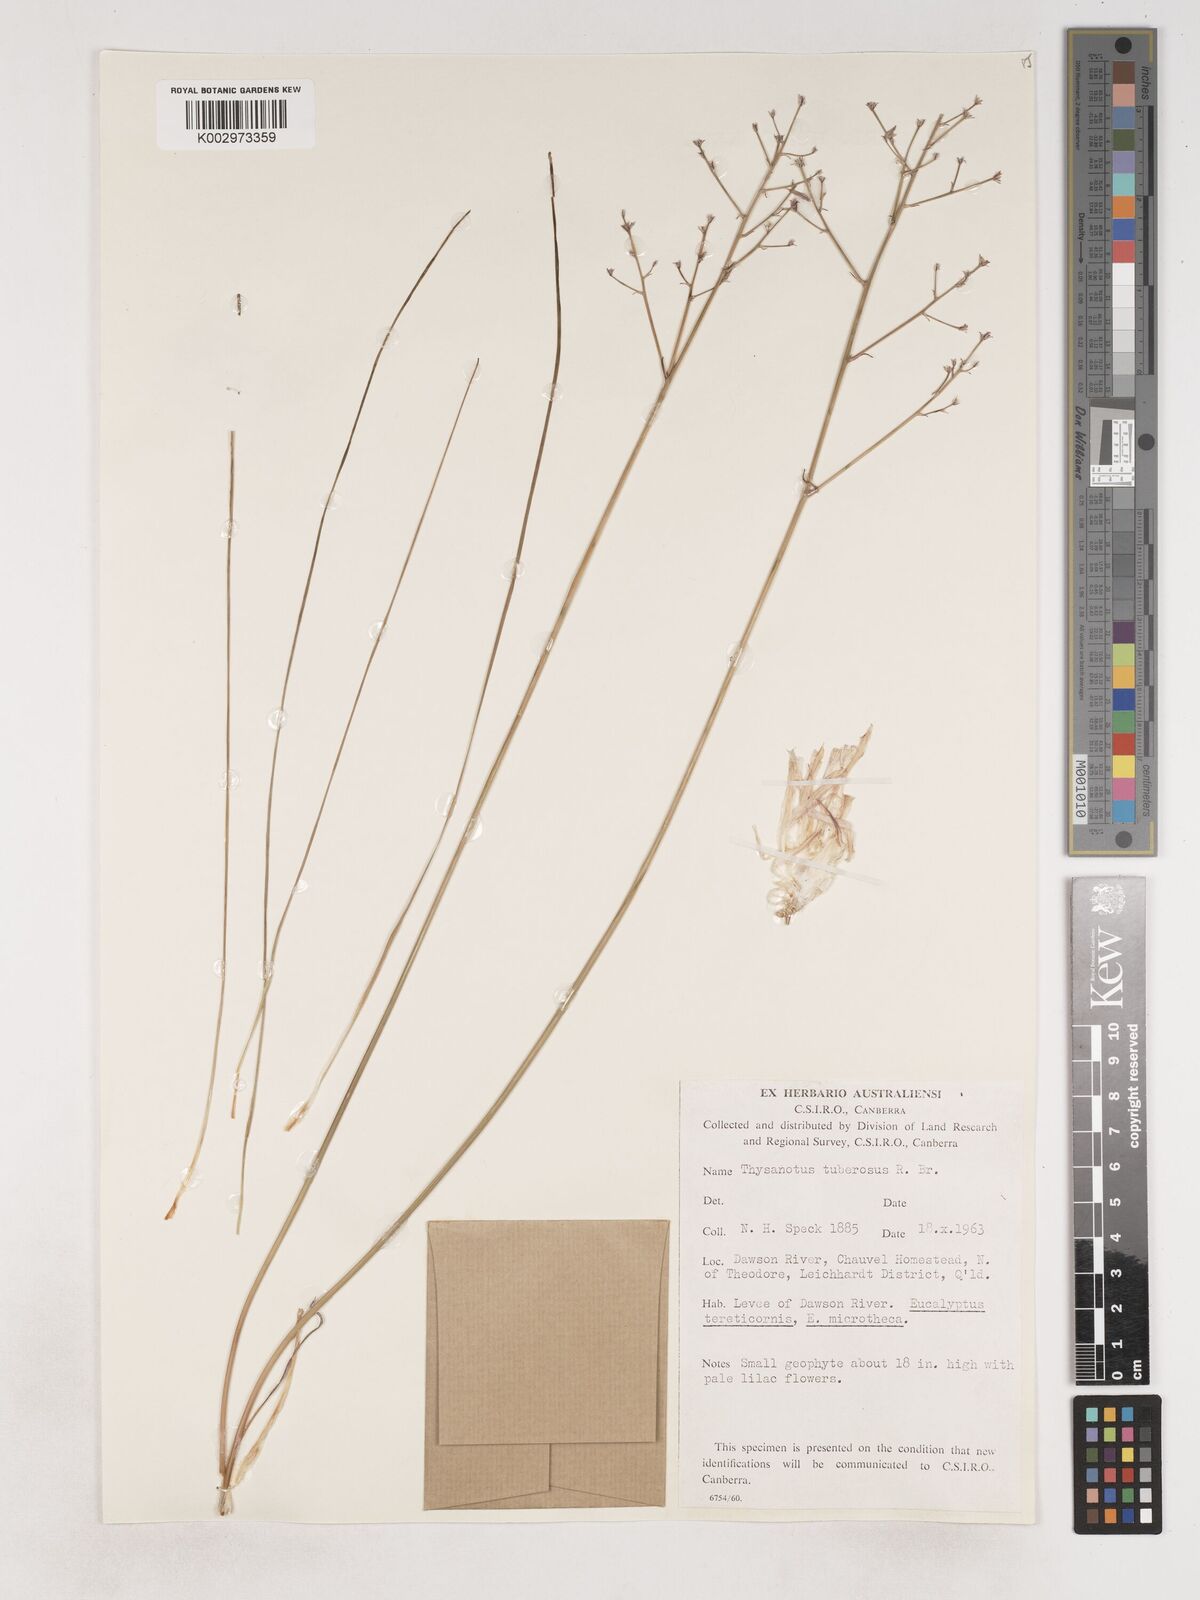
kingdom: Plantae
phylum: Tracheophyta
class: Liliopsida
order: Asparagales
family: Asparagaceae
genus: Thysanotus
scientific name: Thysanotus tuberosus
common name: Common fringed-lily
